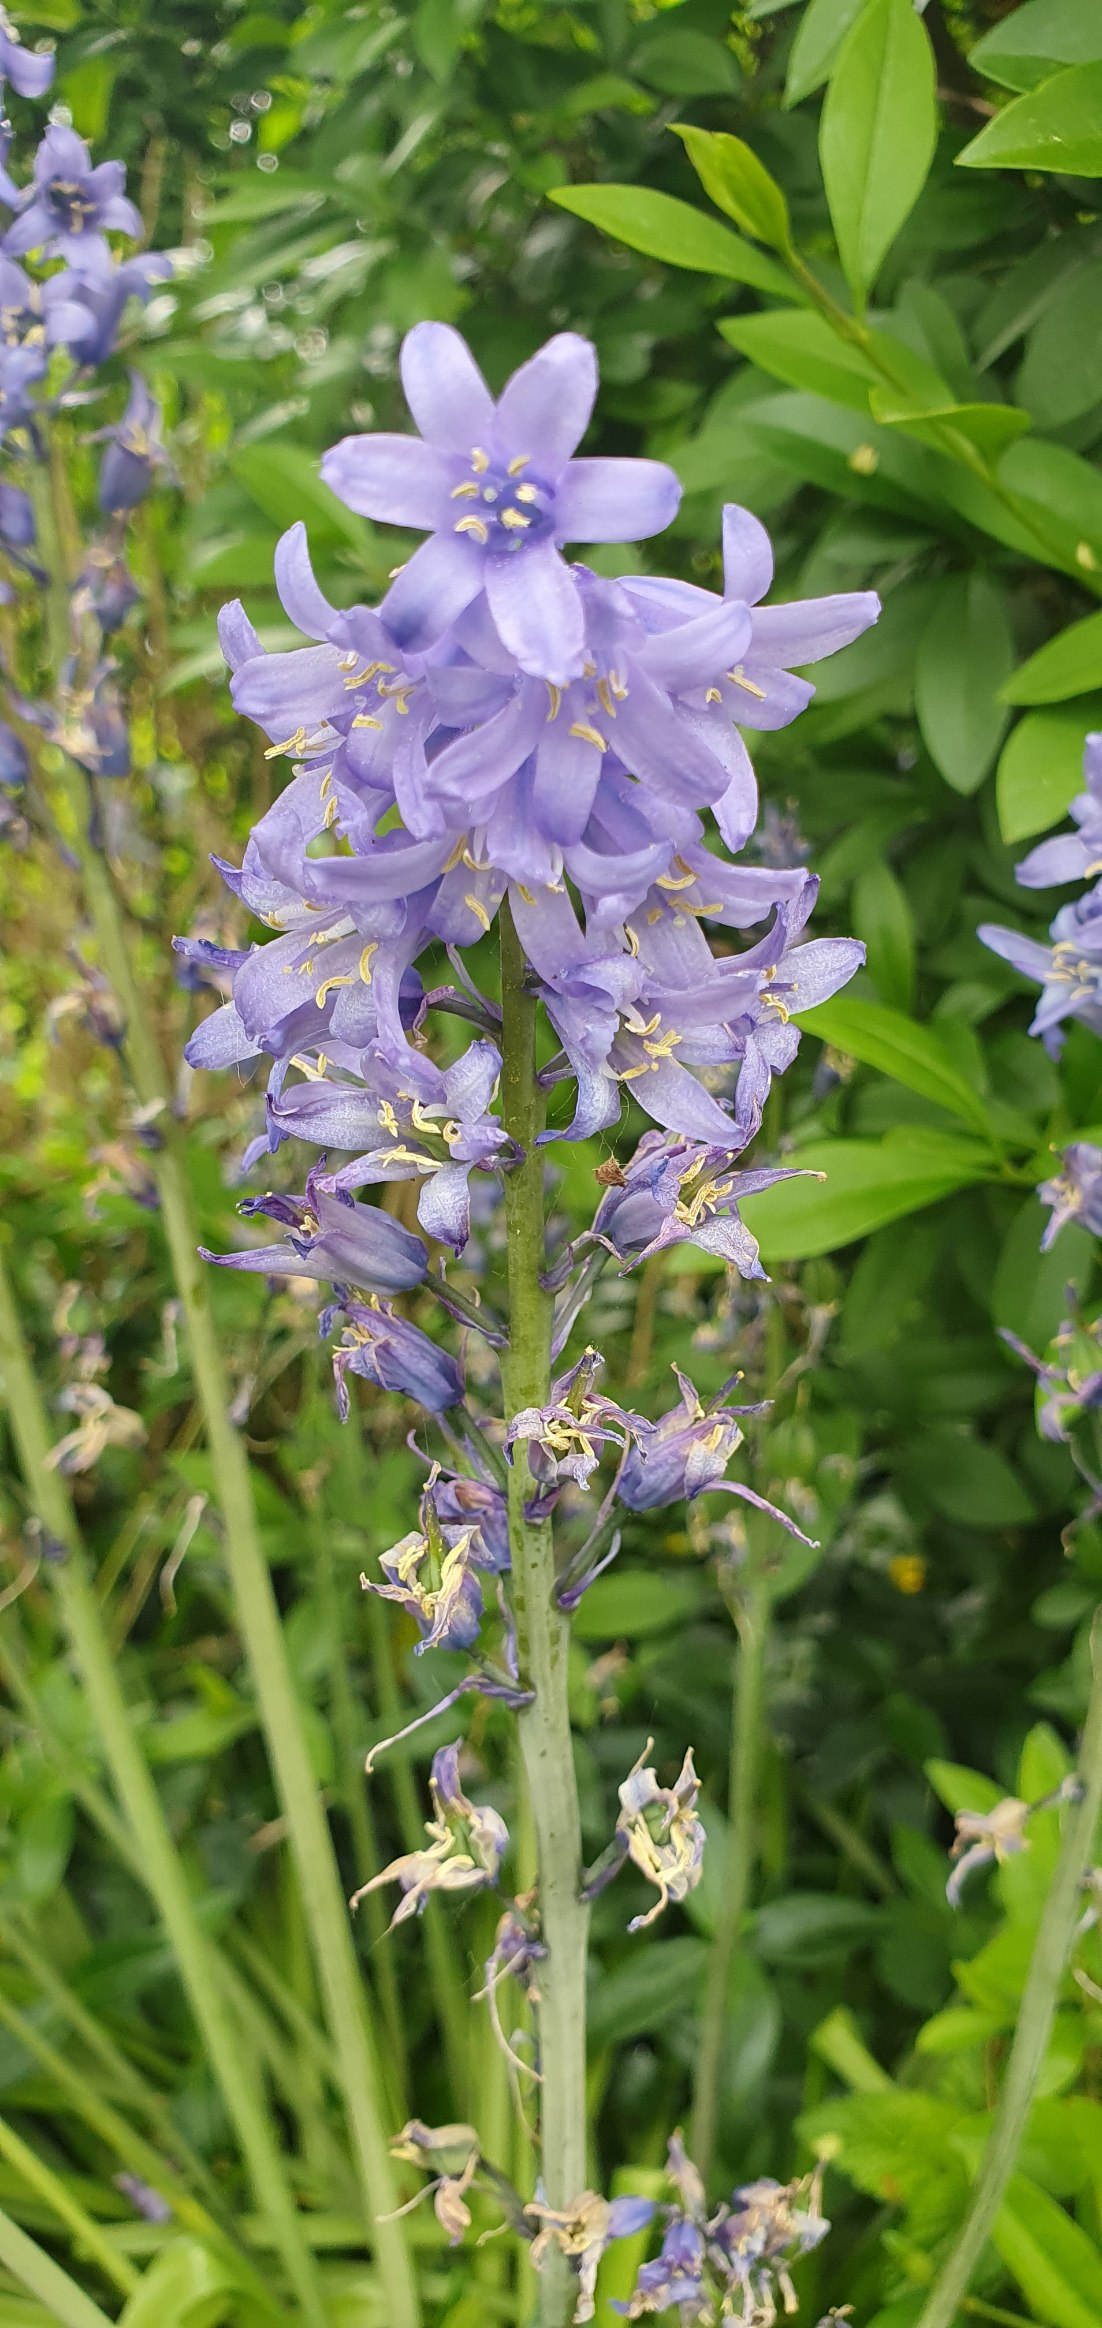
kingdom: Plantae
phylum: Tracheophyta
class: Liliopsida
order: Asparagales
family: Asparagaceae
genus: Hyacinthoides
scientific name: Hyacinthoides massartiana
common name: Hybrid-klokkeskilla
